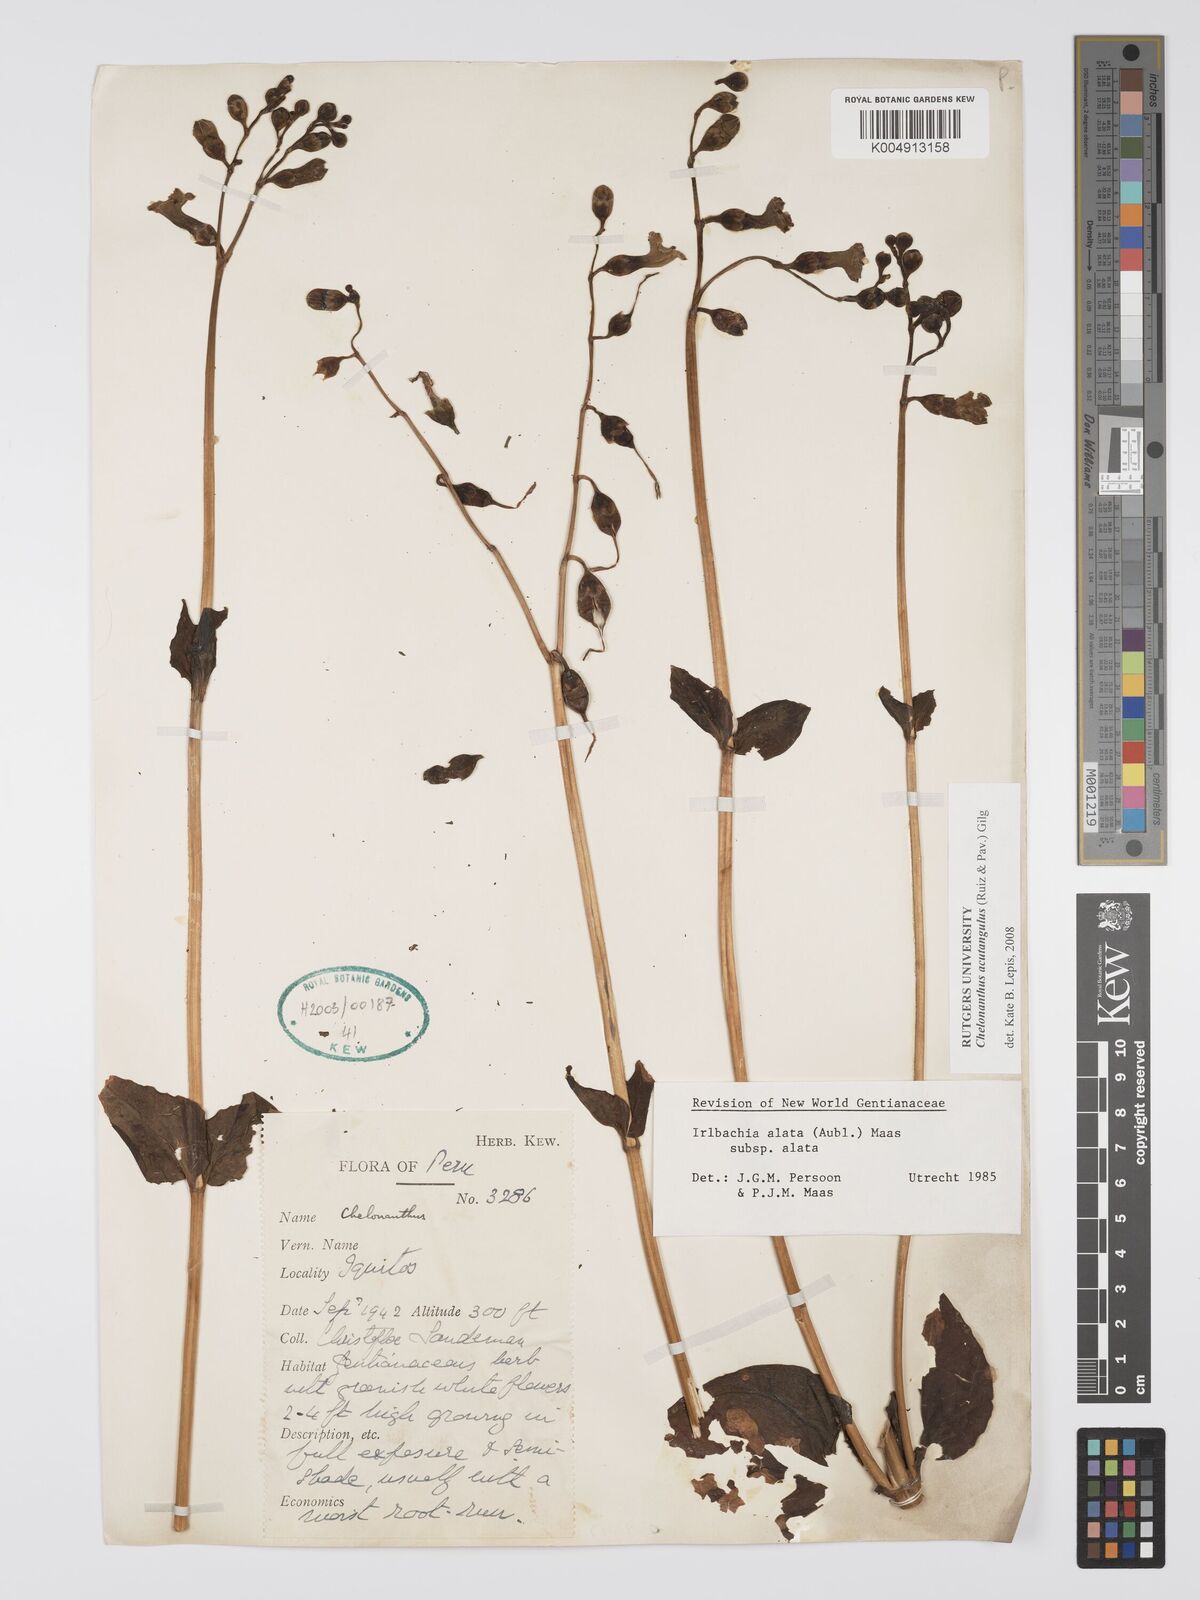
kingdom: Plantae
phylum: Tracheophyta
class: Magnoliopsida
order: Gentianales
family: Gentianaceae
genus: Chelonanthus
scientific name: Chelonanthus alatus
